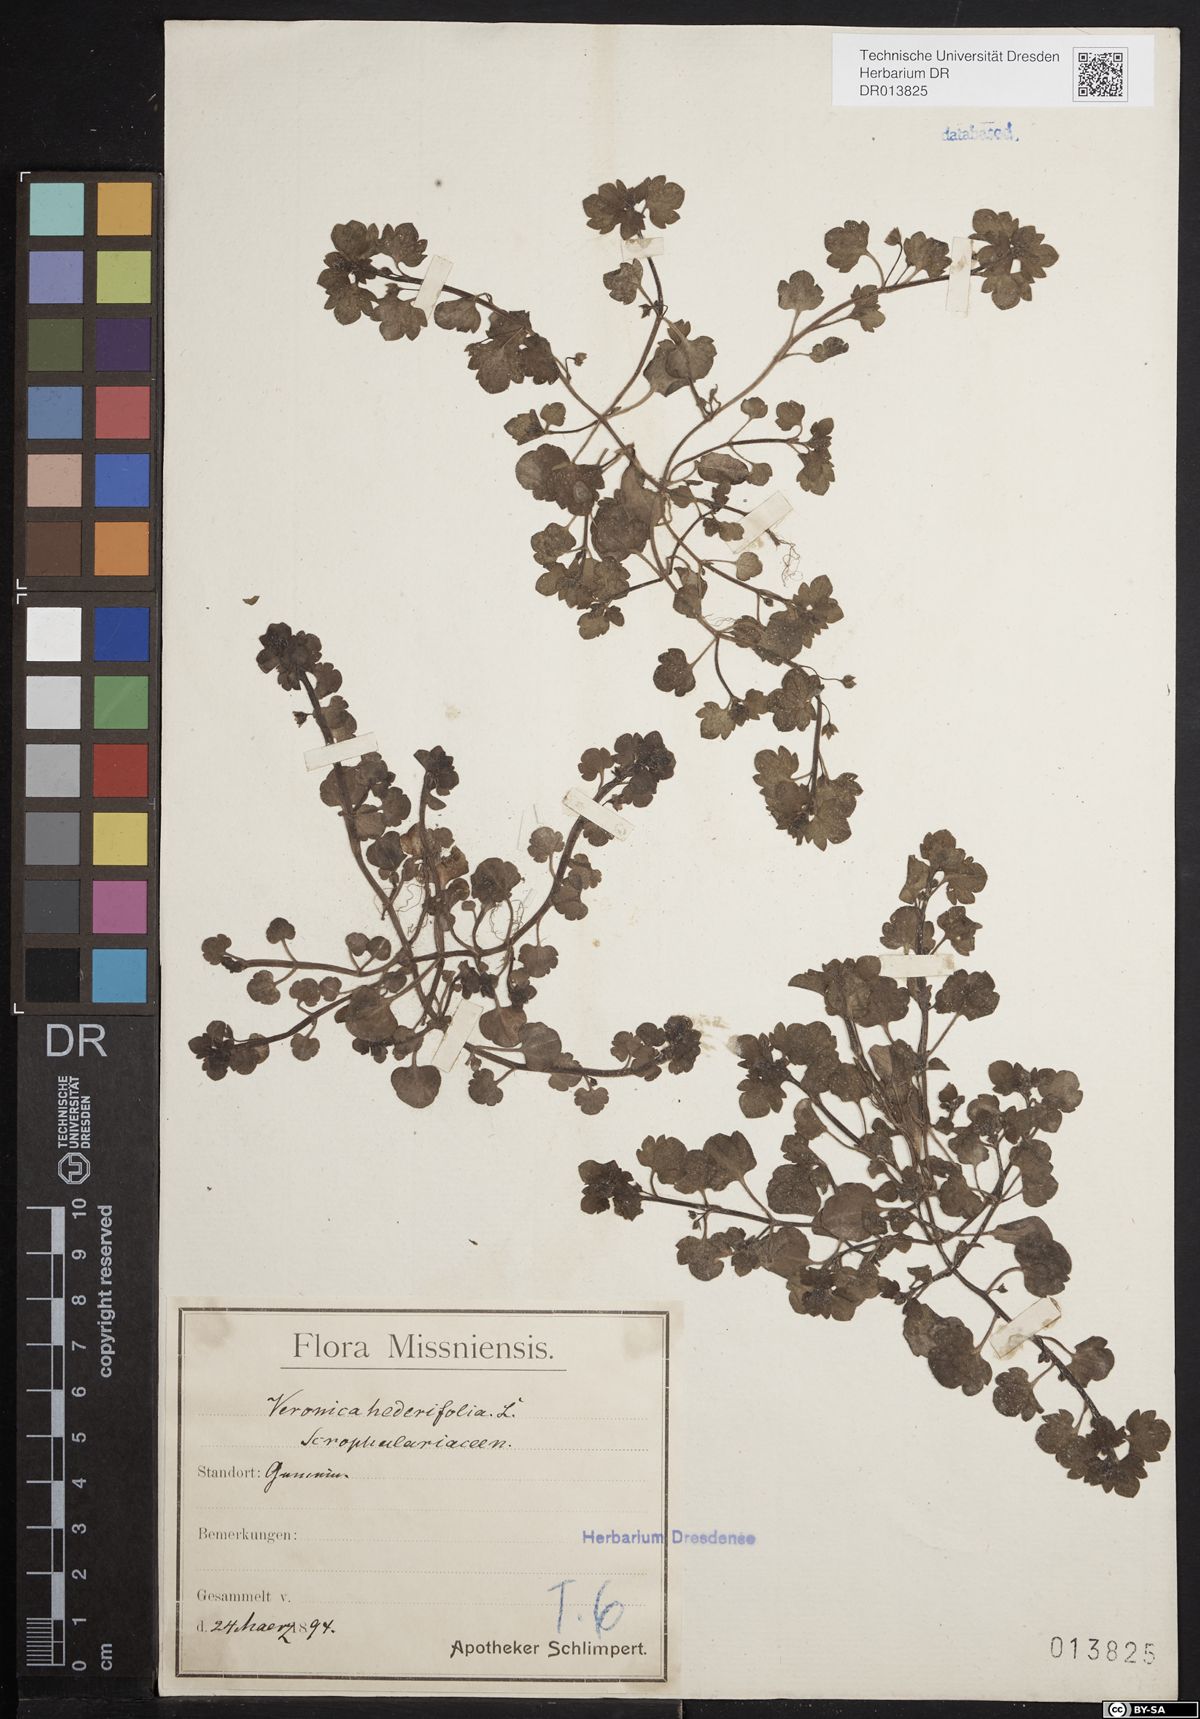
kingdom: Plantae
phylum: Tracheophyta
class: Magnoliopsida
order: Lamiales
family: Plantaginaceae
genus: Veronica
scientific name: Veronica hederifolia
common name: Ivy-leaved speedwell
